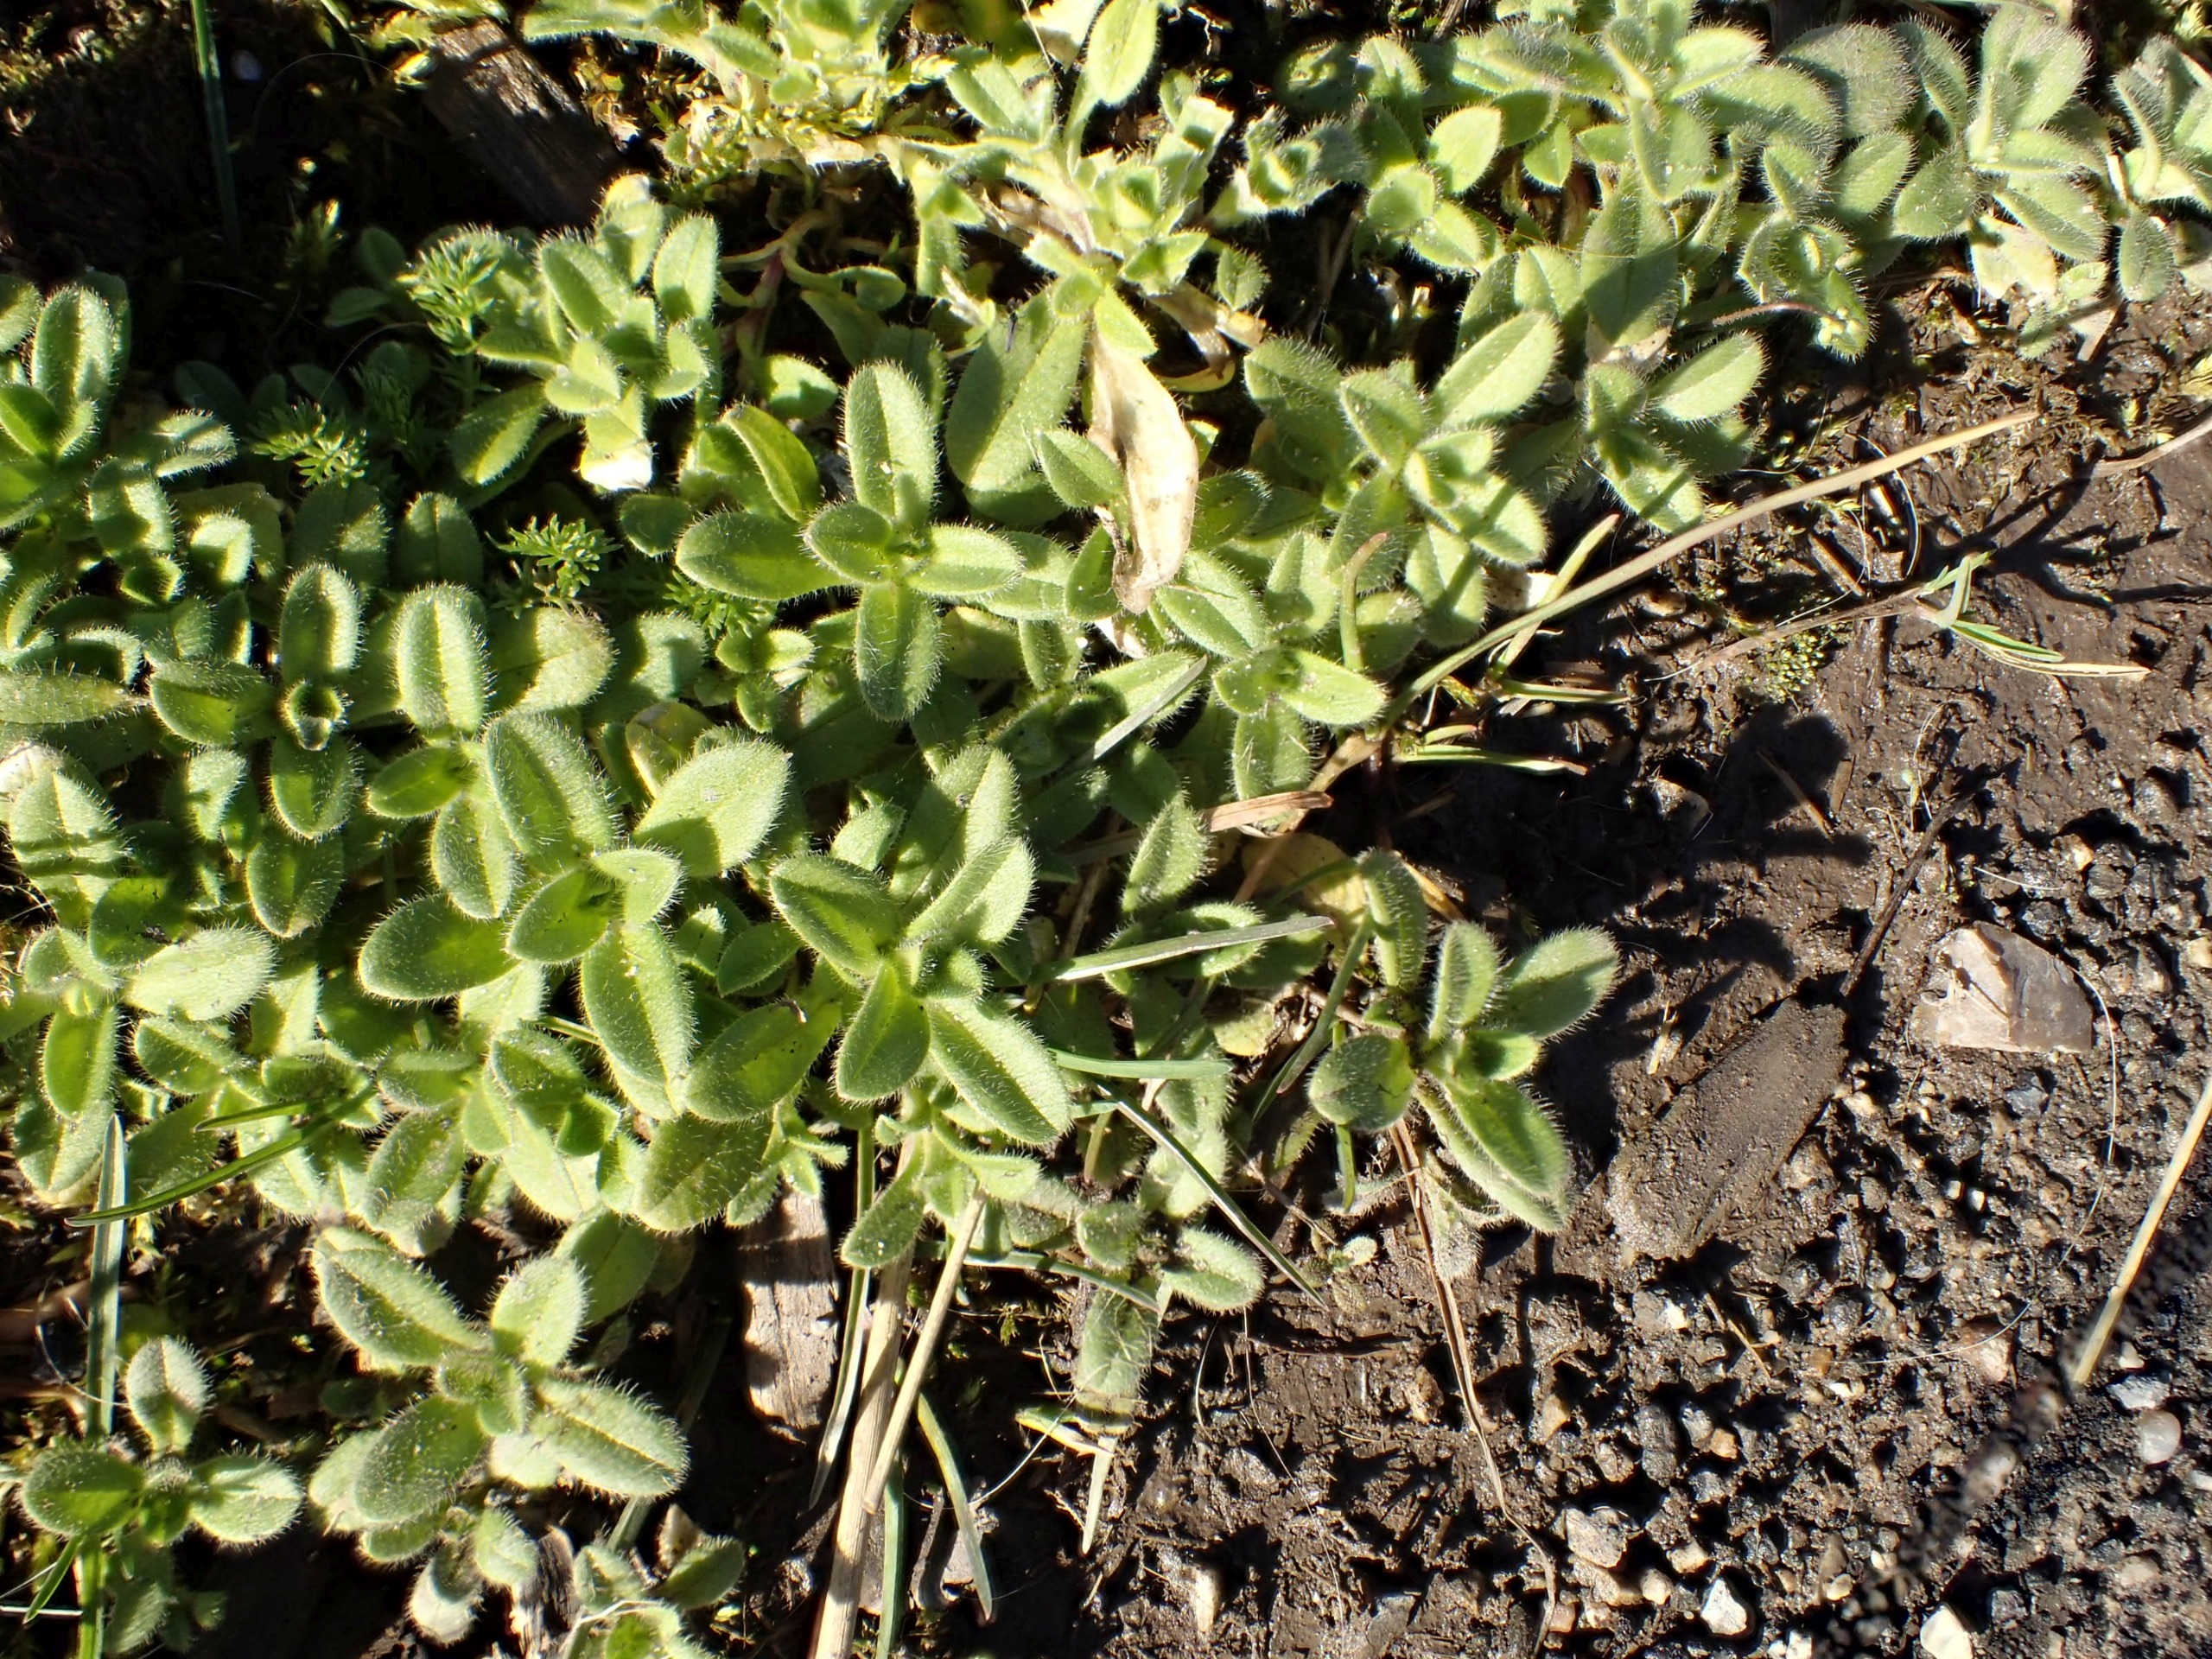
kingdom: Plantae
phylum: Tracheophyta
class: Magnoliopsida
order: Caryophyllales
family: Caryophyllaceae
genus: Cerastium
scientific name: Cerastium fontanum
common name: Almindelig hønsetarm
